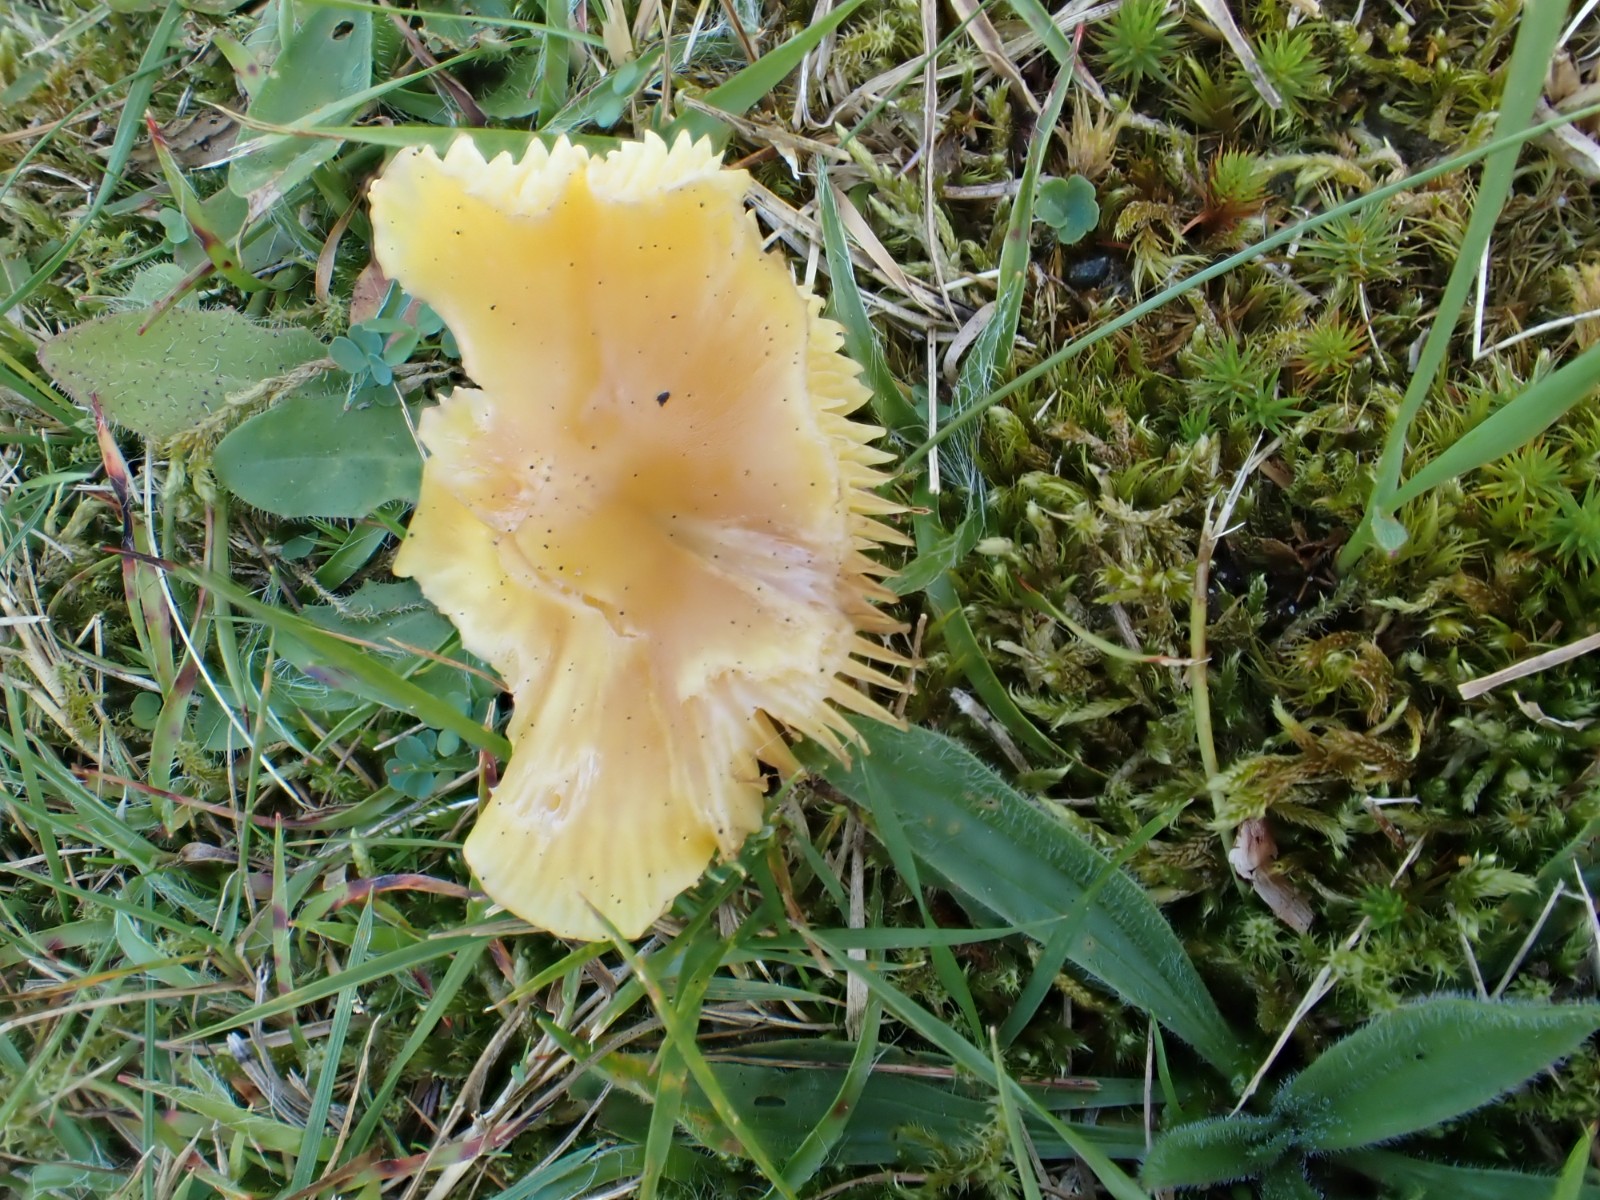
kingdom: Fungi
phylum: Basidiomycota
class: Agaricomycetes
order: Agaricales
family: Hygrophoraceae
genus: Hygrocybe
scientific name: Hygrocybe chlorophana
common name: gul vokshat
